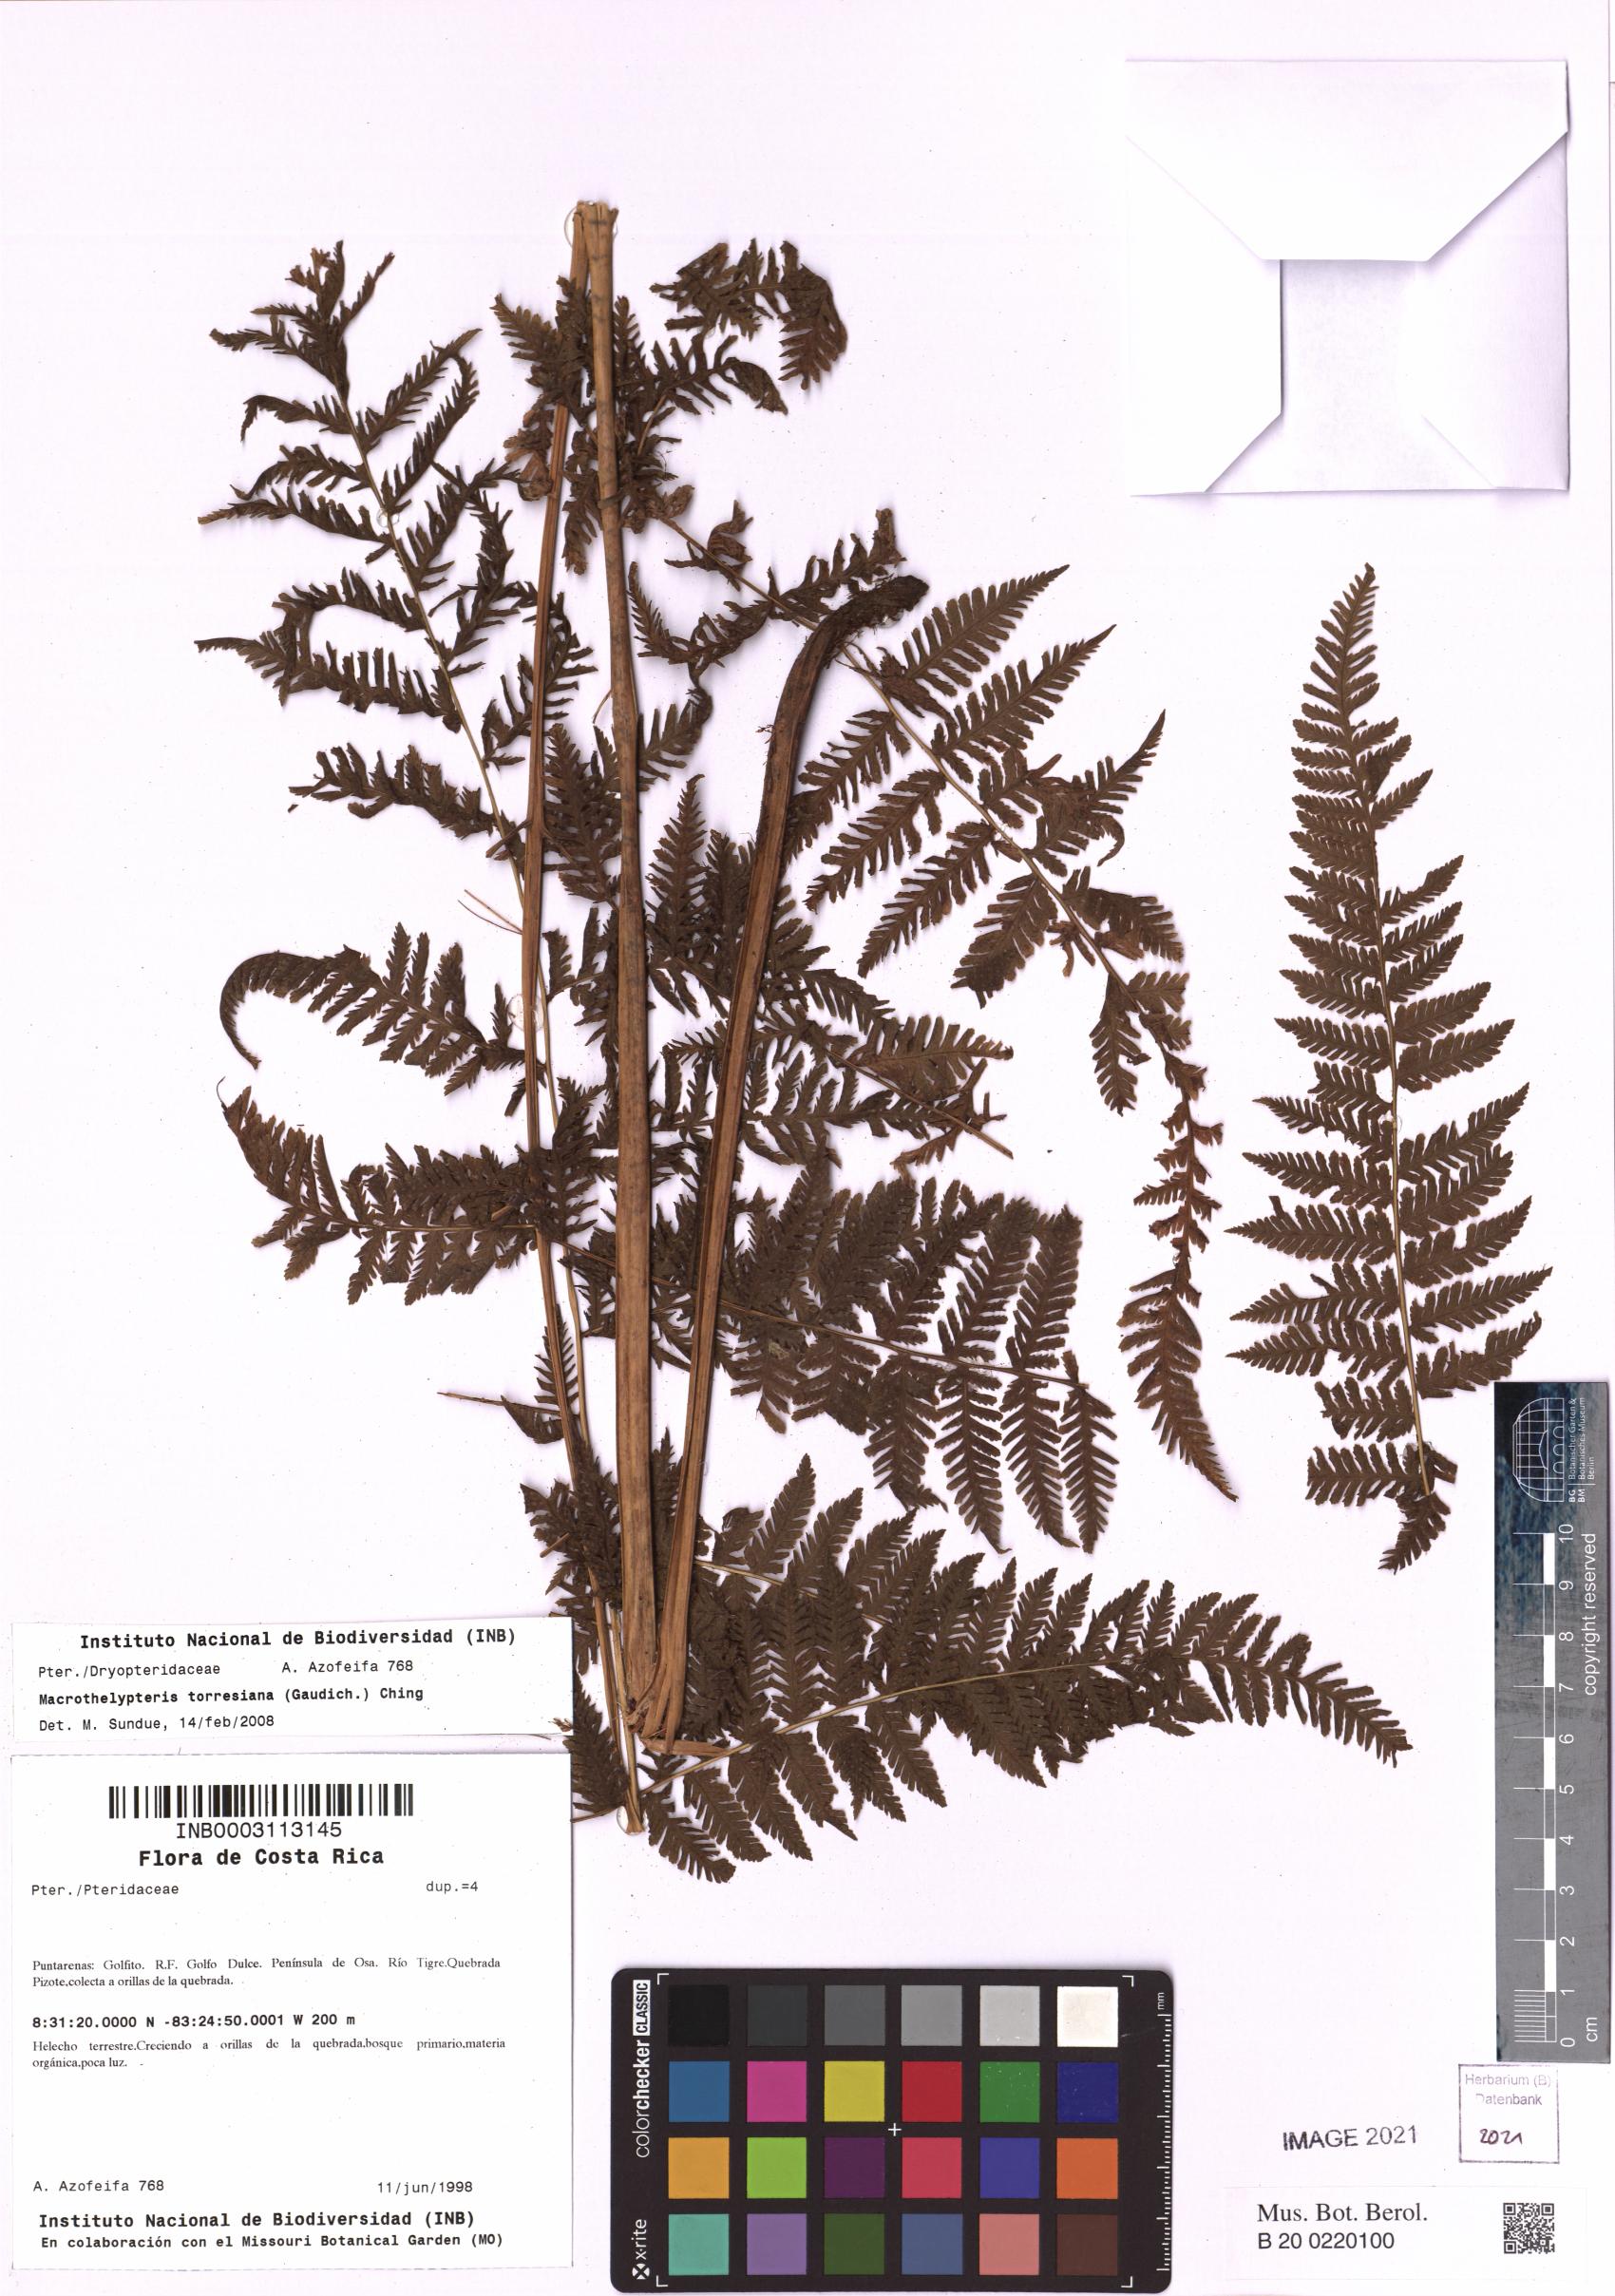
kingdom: Plantae
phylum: Tracheophyta
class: Polypodiopsida
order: Polypodiales
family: Thelypteridaceae
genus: Macrothelypteris
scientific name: Macrothelypteris torresiana
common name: Swordfern
